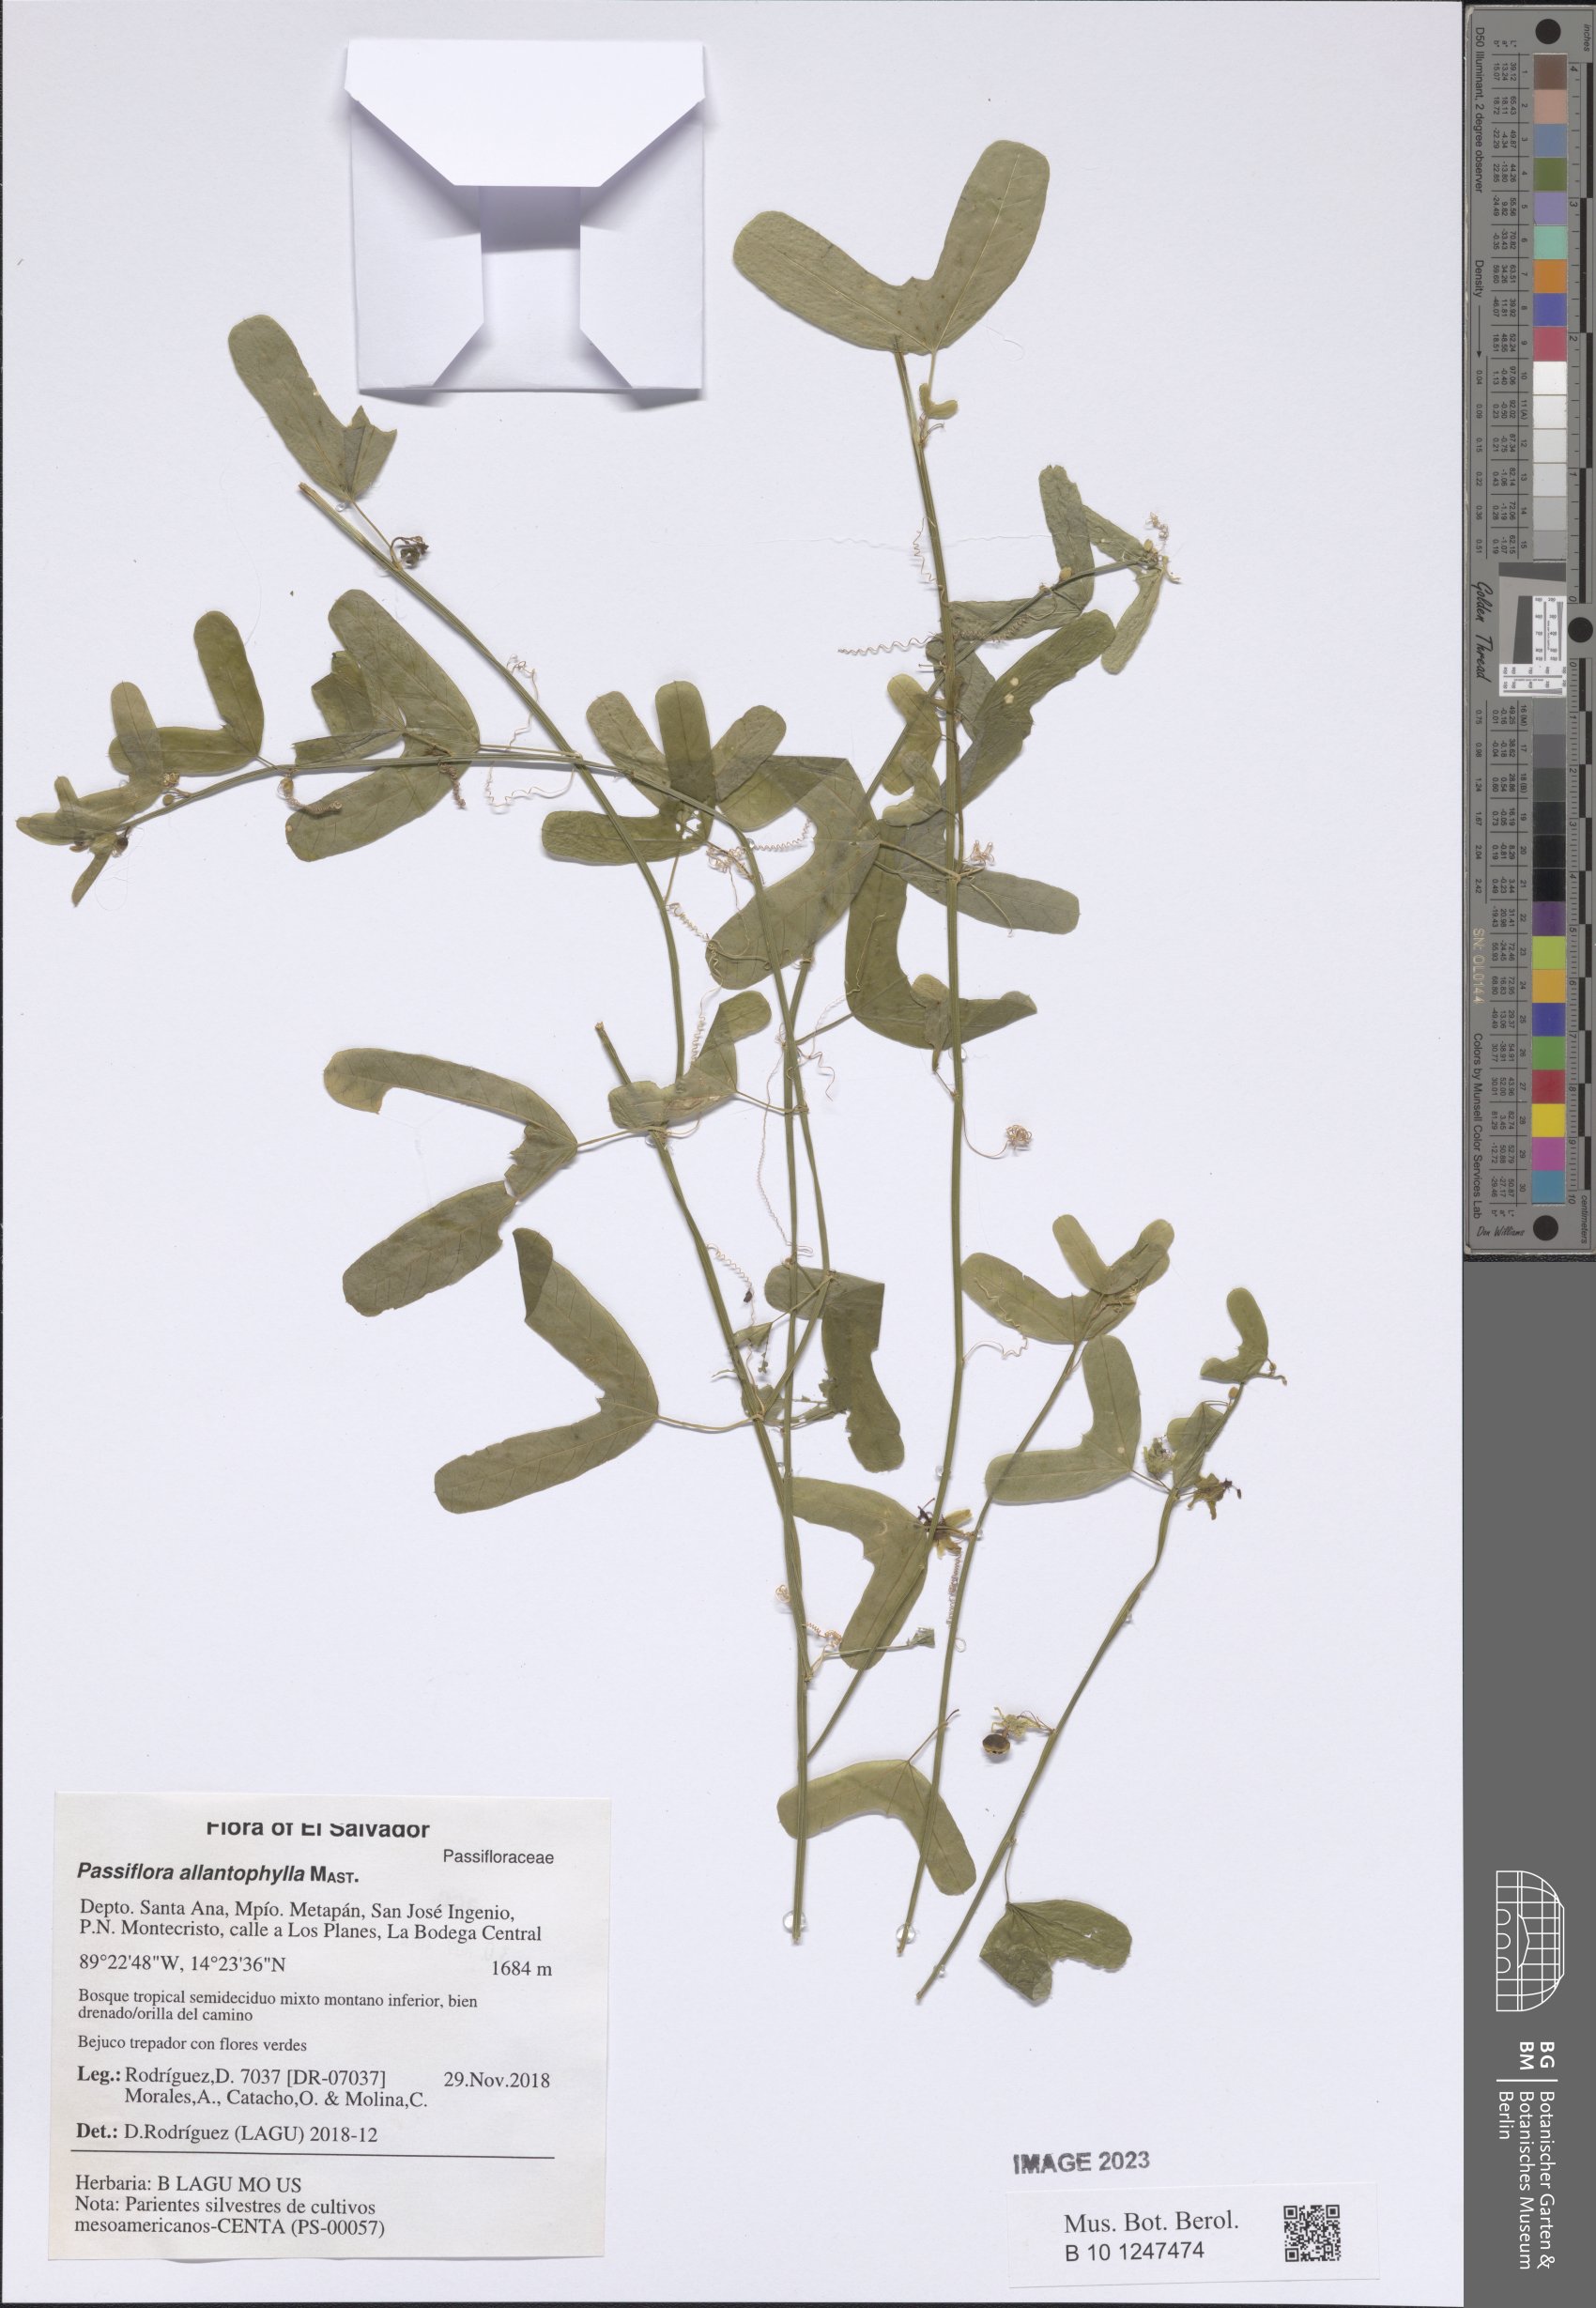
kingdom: Plantae
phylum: Tracheophyta
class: Magnoliopsida
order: Malpighiales
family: Passifloraceae
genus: Passiflora
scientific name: Passiflora allantophylla
